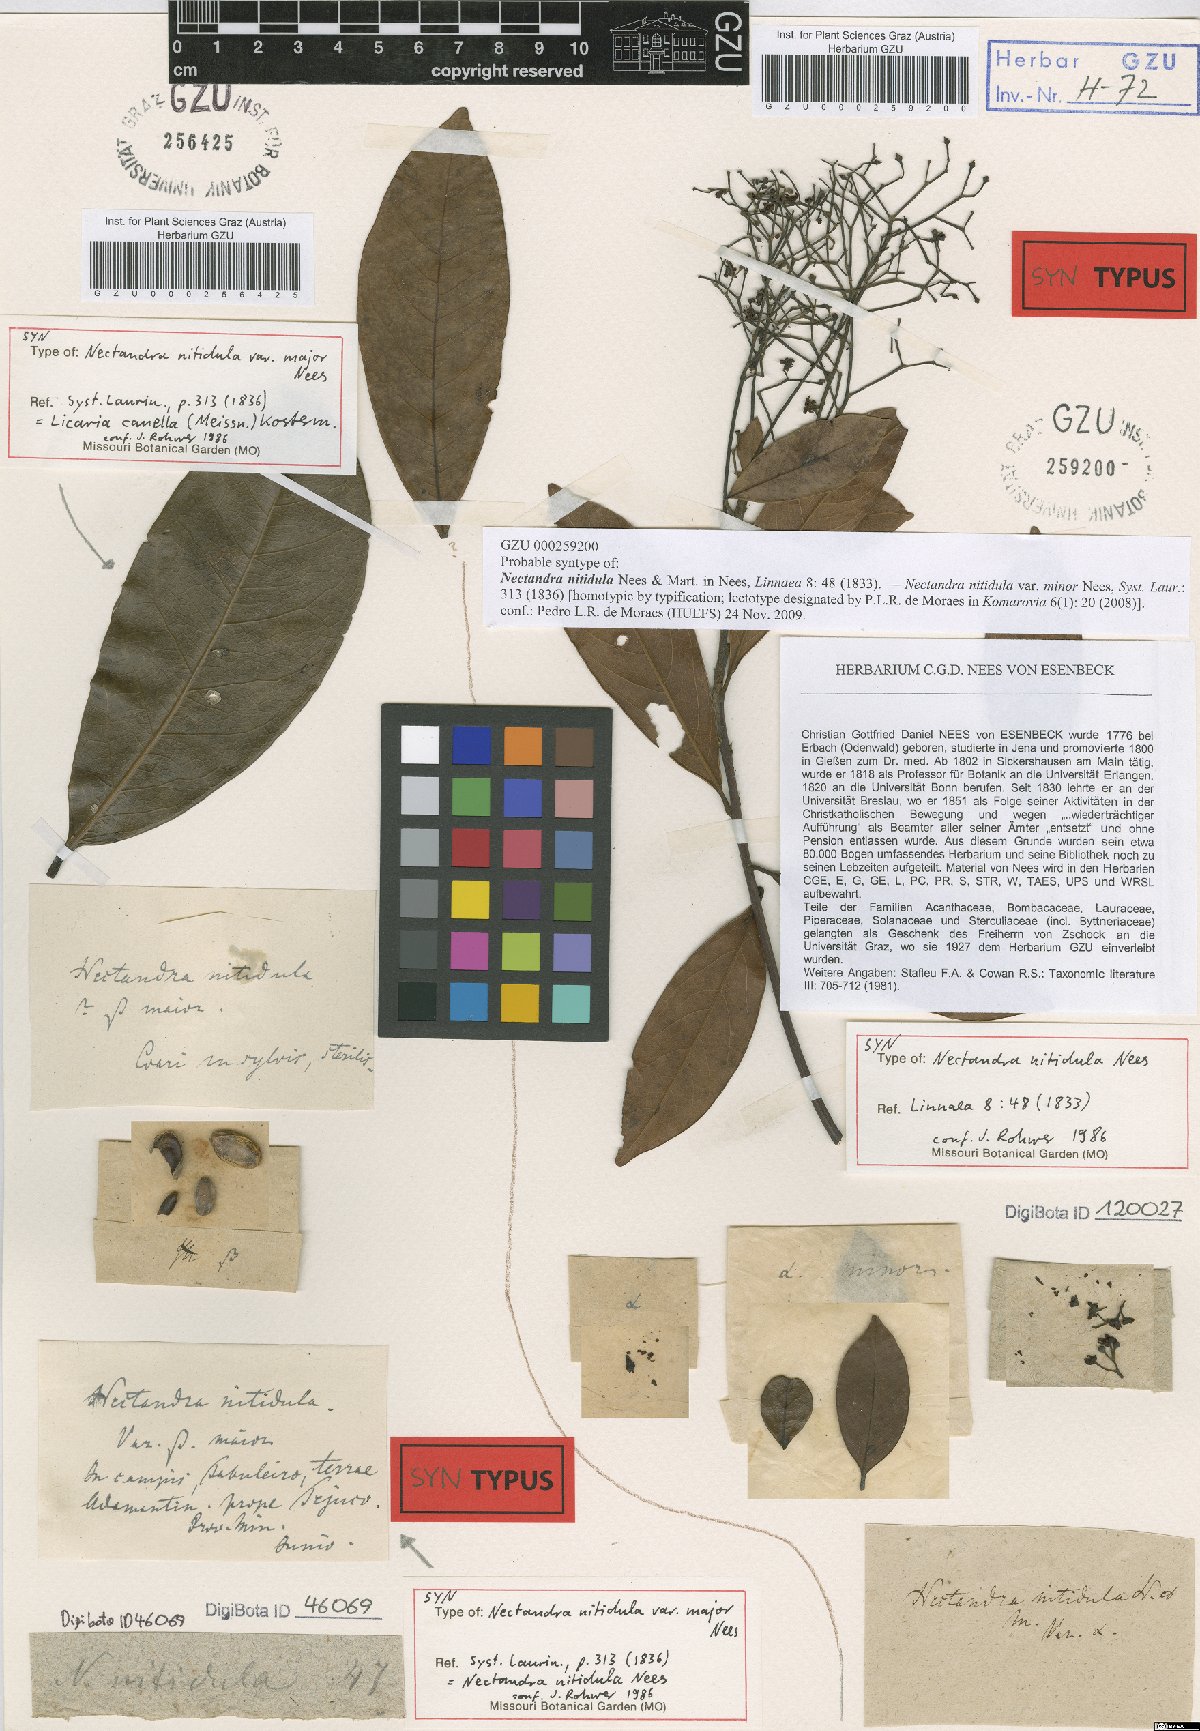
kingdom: Plantae
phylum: Tracheophyta
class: Magnoliopsida
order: Laurales
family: Lauraceae
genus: Nectandra
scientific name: Nectandra nitidula
